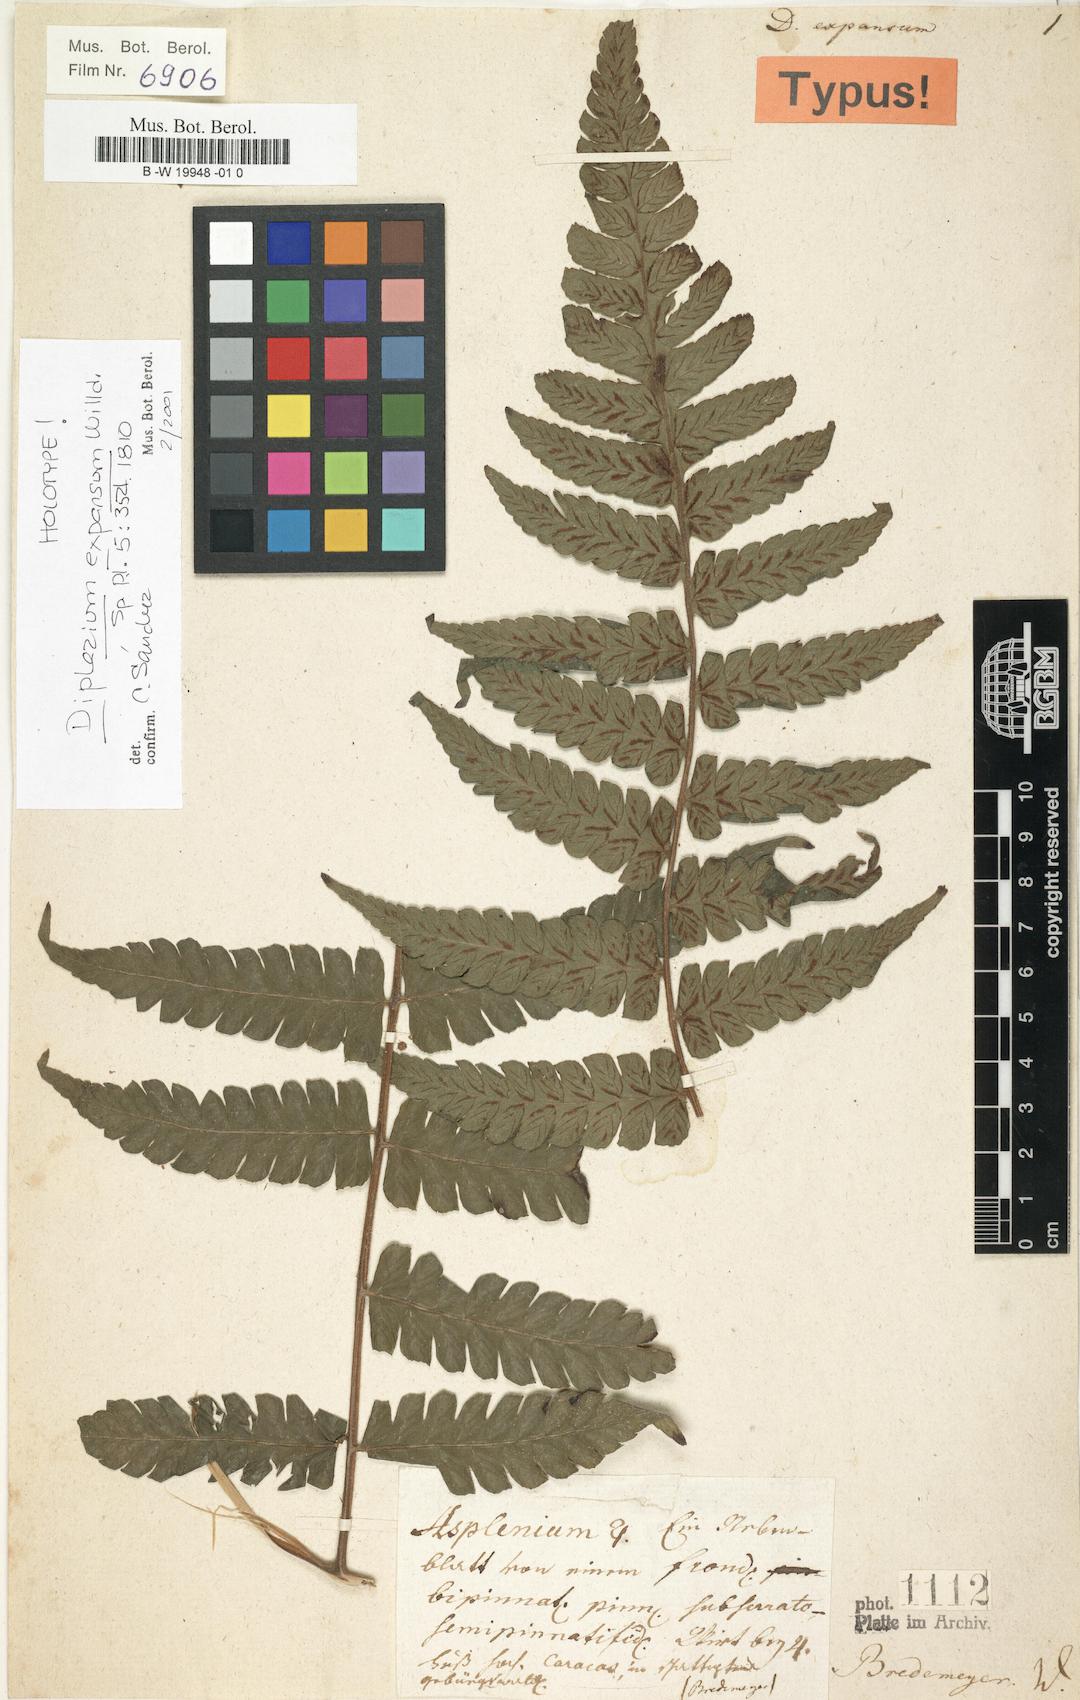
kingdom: Plantae
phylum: Tracheophyta
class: Polypodiopsida
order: Polypodiales
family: Athyriaceae
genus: Diplazium
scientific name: Diplazium expansum
